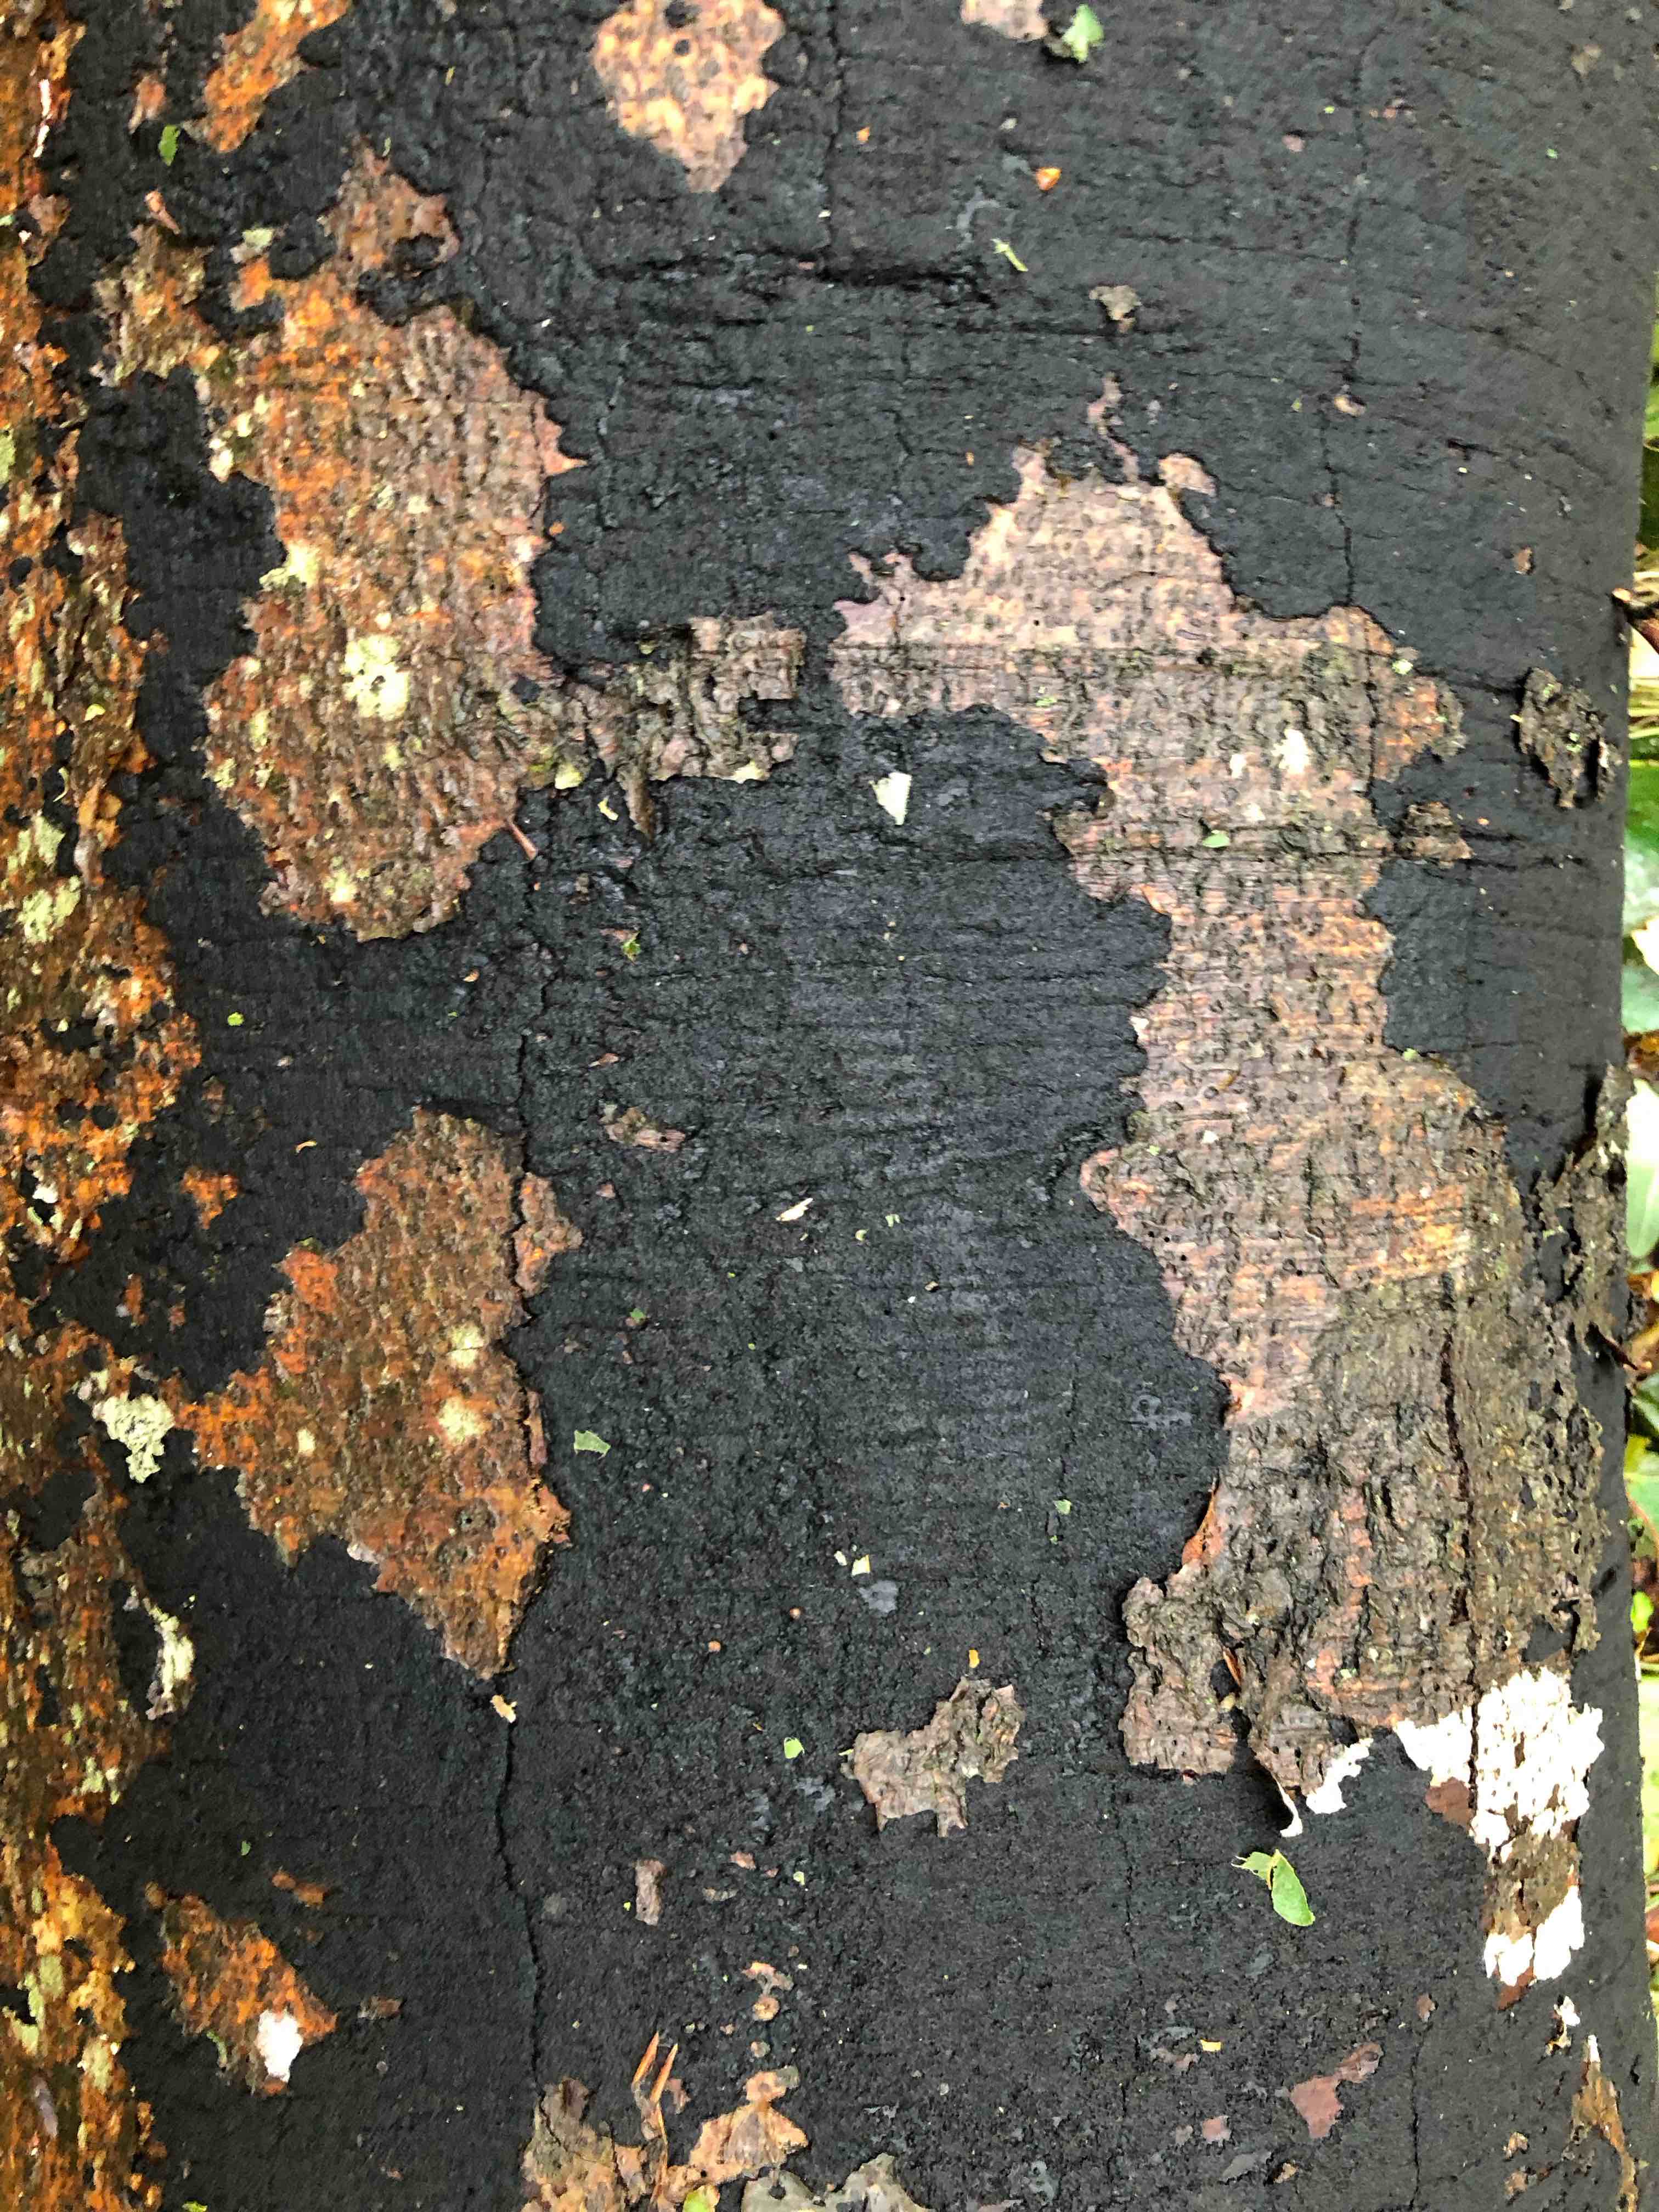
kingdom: Fungi
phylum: Ascomycota
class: Sordariomycetes
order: Xylariales
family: Diatrypaceae
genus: Eutypa
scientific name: Eutypa spinosa
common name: grov kulskorpe
